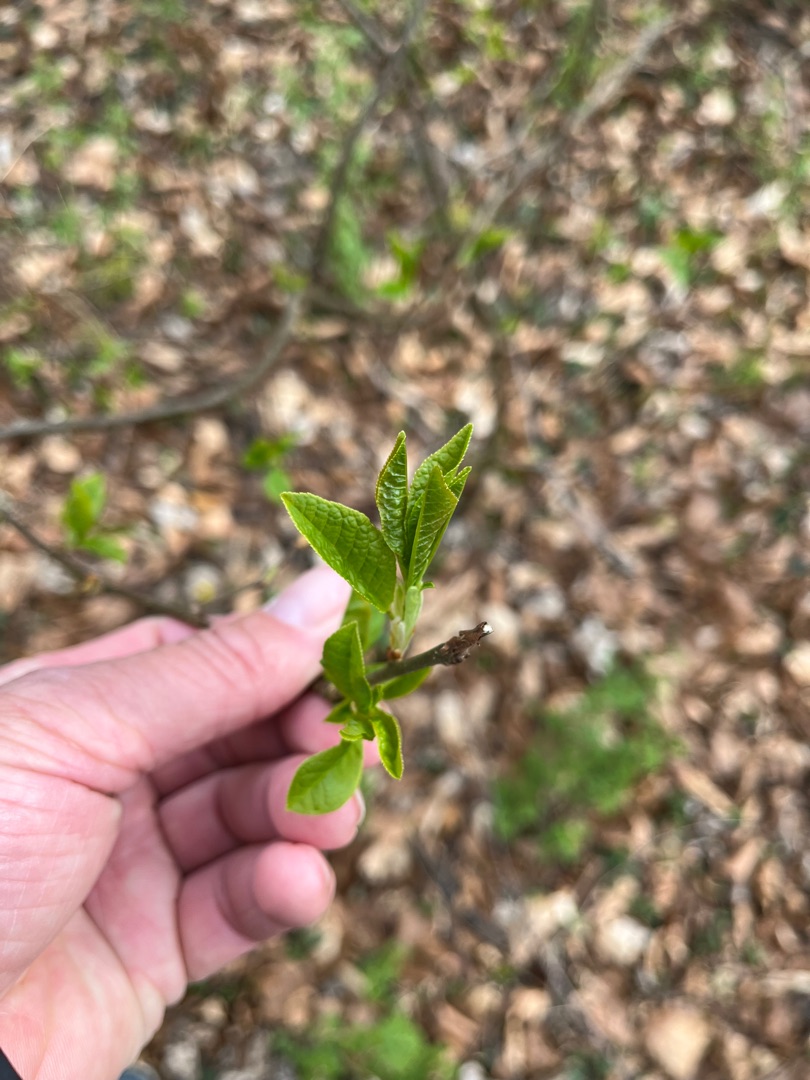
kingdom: Plantae
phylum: Tracheophyta
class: Magnoliopsida
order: Rosales
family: Rosaceae
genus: Prunus
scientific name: Prunus padus
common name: Almindelig hæg
